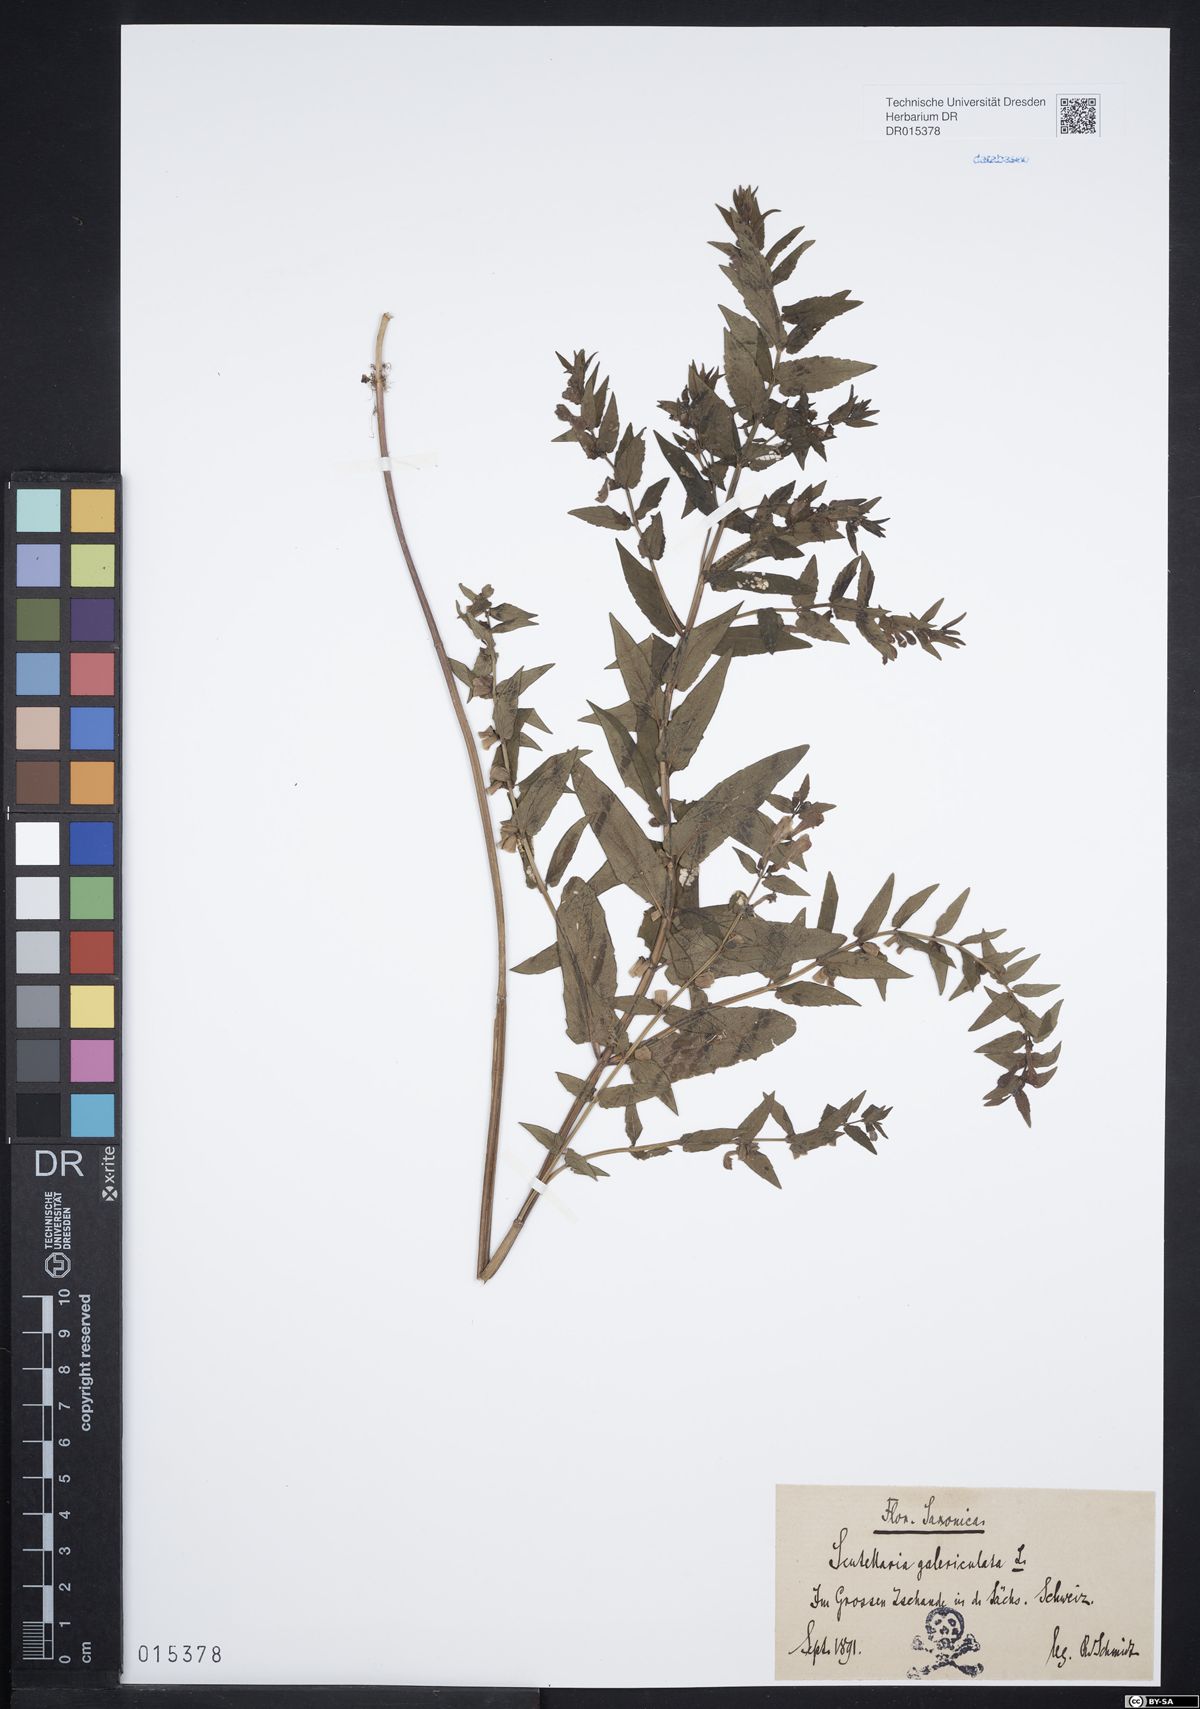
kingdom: Plantae
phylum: Tracheophyta
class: Magnoliopsida
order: Lamiales
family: Lamiaceae
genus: Scutellaria
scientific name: Scutellaria galericulata
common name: Skullcap
